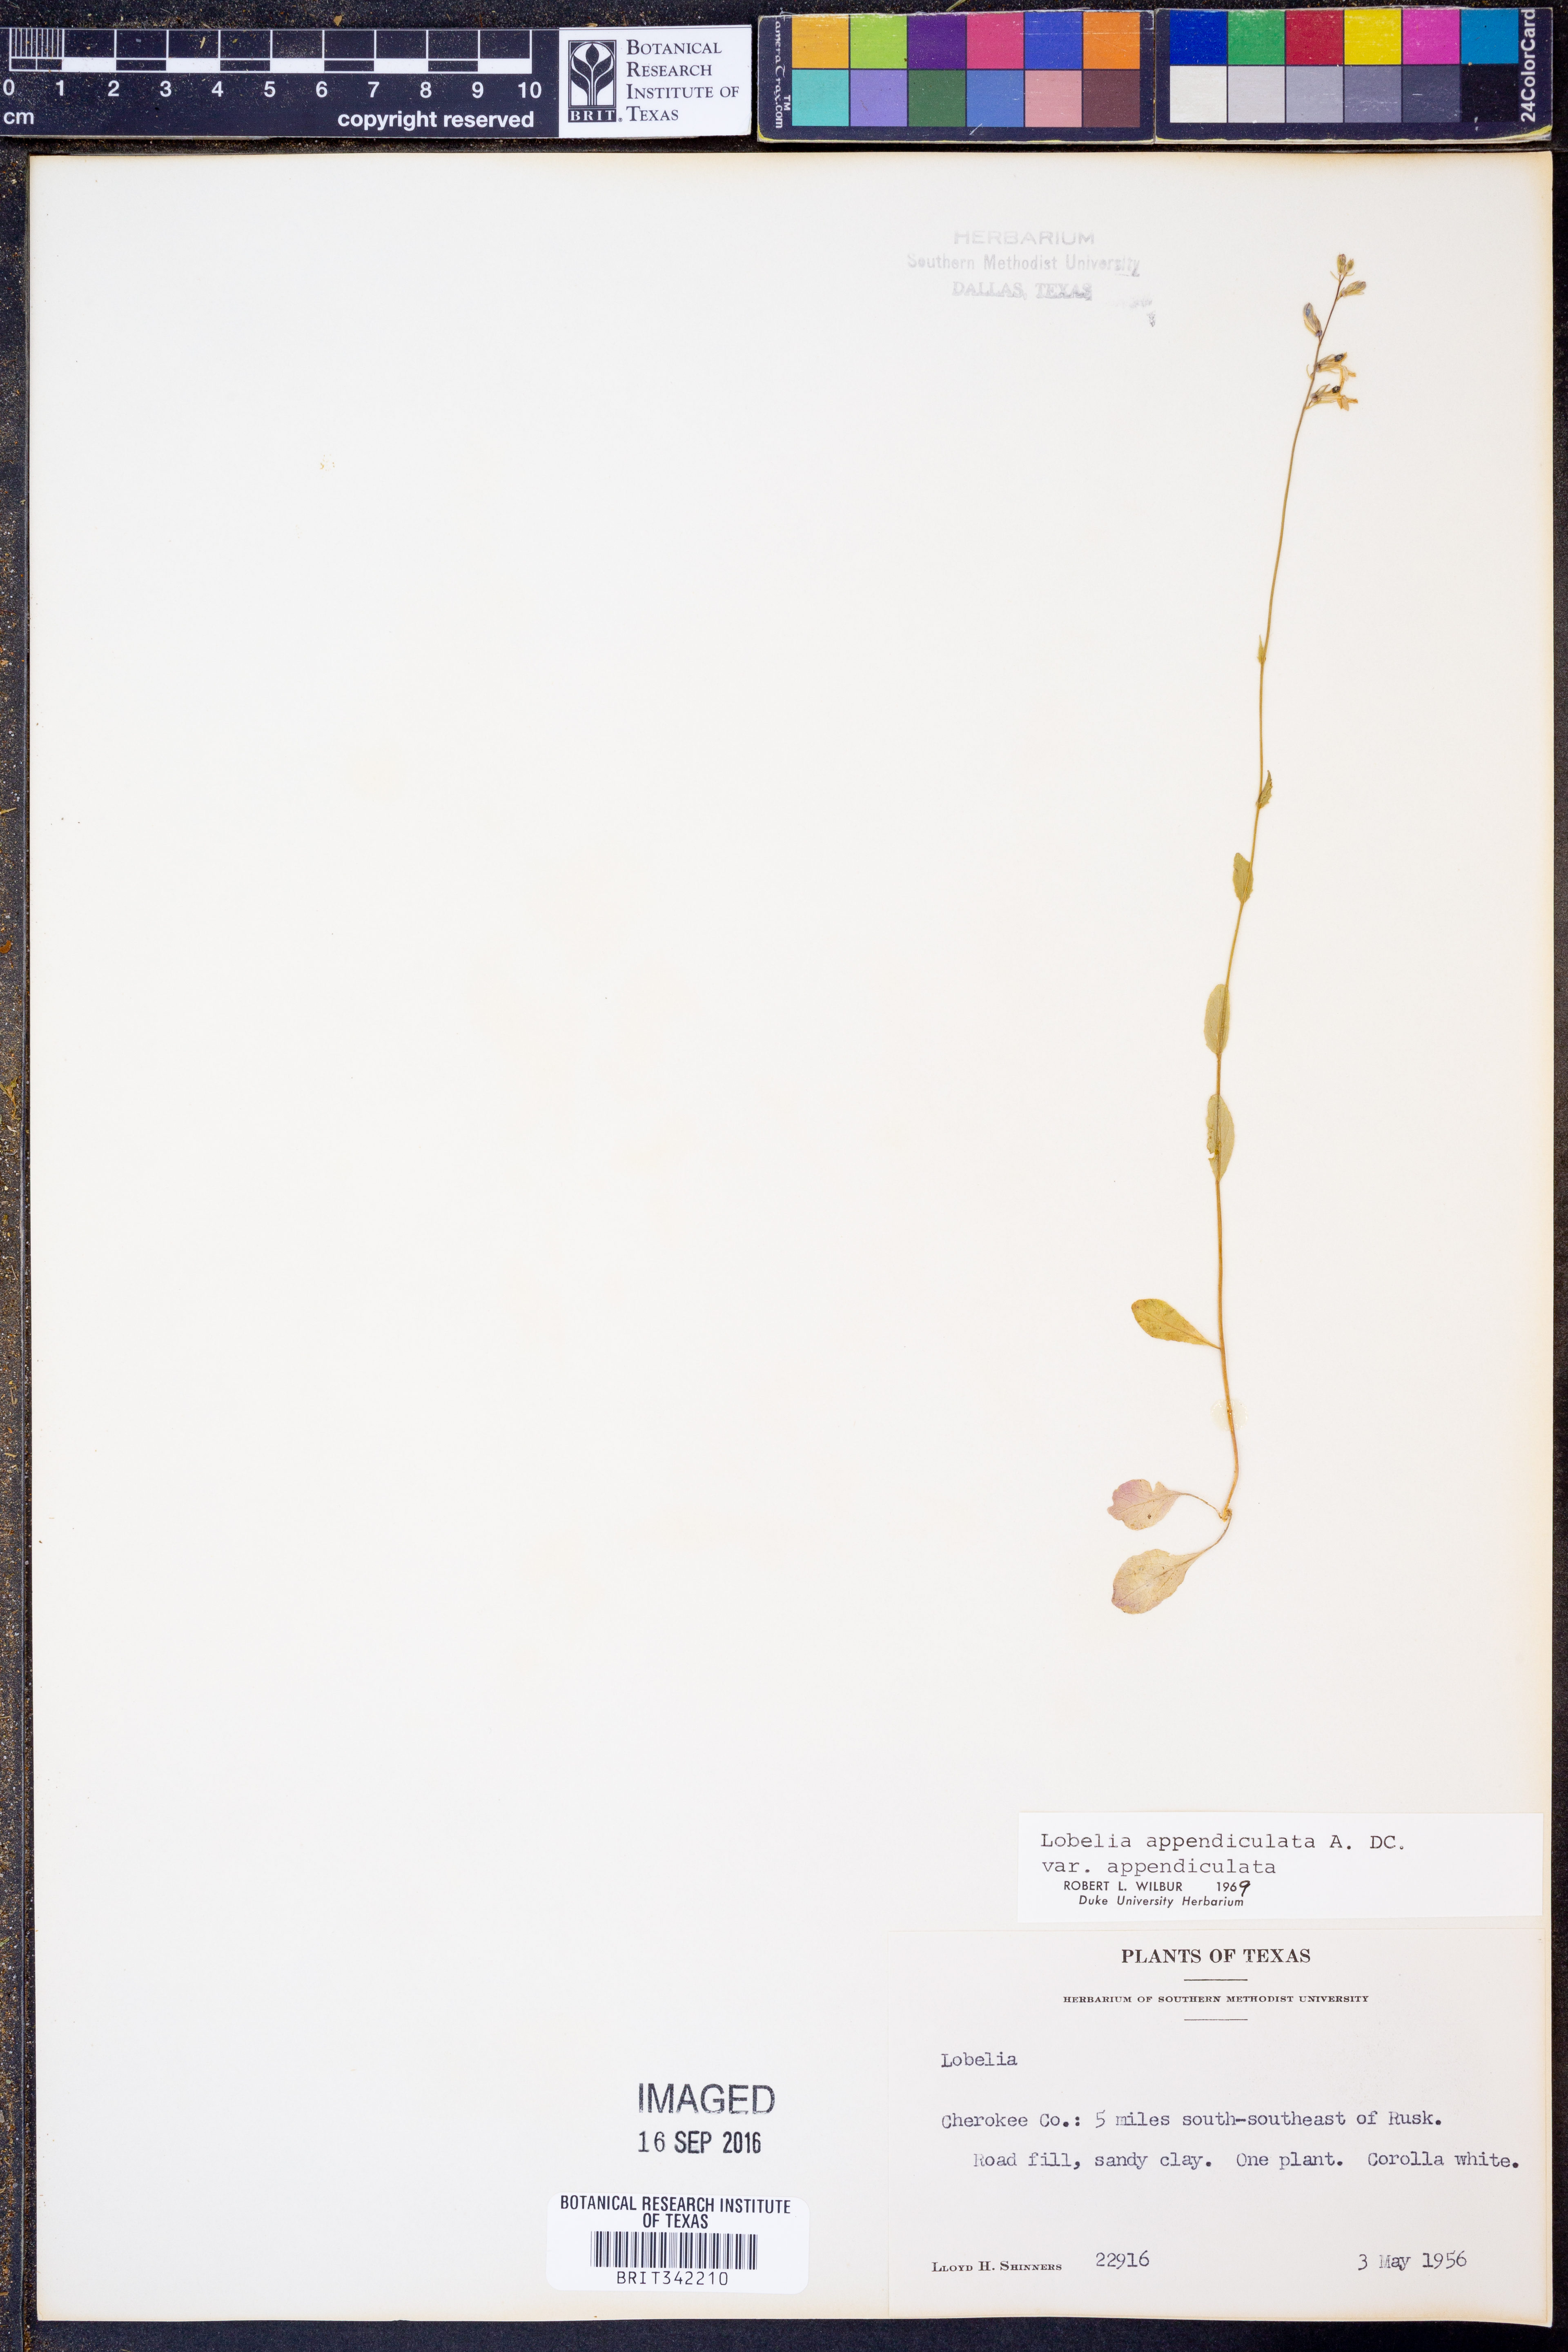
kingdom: Plantae
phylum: Tracheophyta
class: Magnoliopsida
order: Asterales
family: Campanulaceae
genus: Lobelia
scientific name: Lobelia appendiculata
